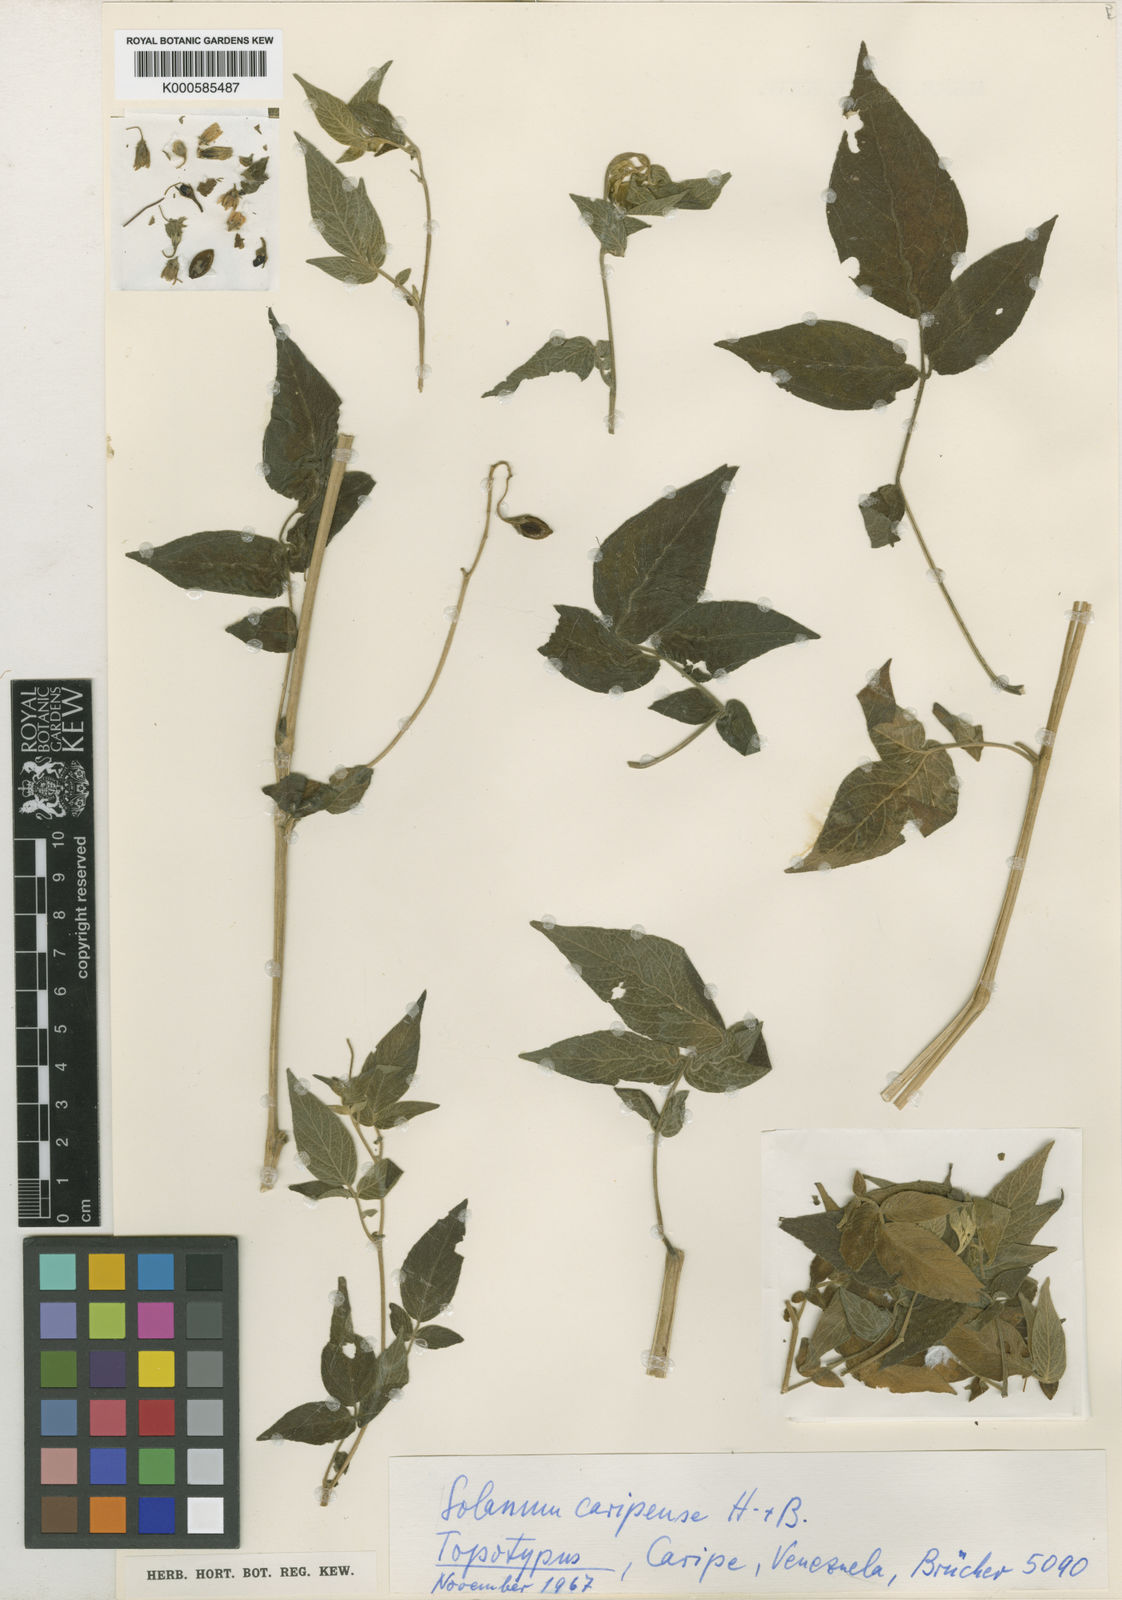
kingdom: Plantae
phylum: Tracheophyta
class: Magnoliopsida
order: Solanales
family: Solanaceae
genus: Solanum
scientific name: Solanum caripense
